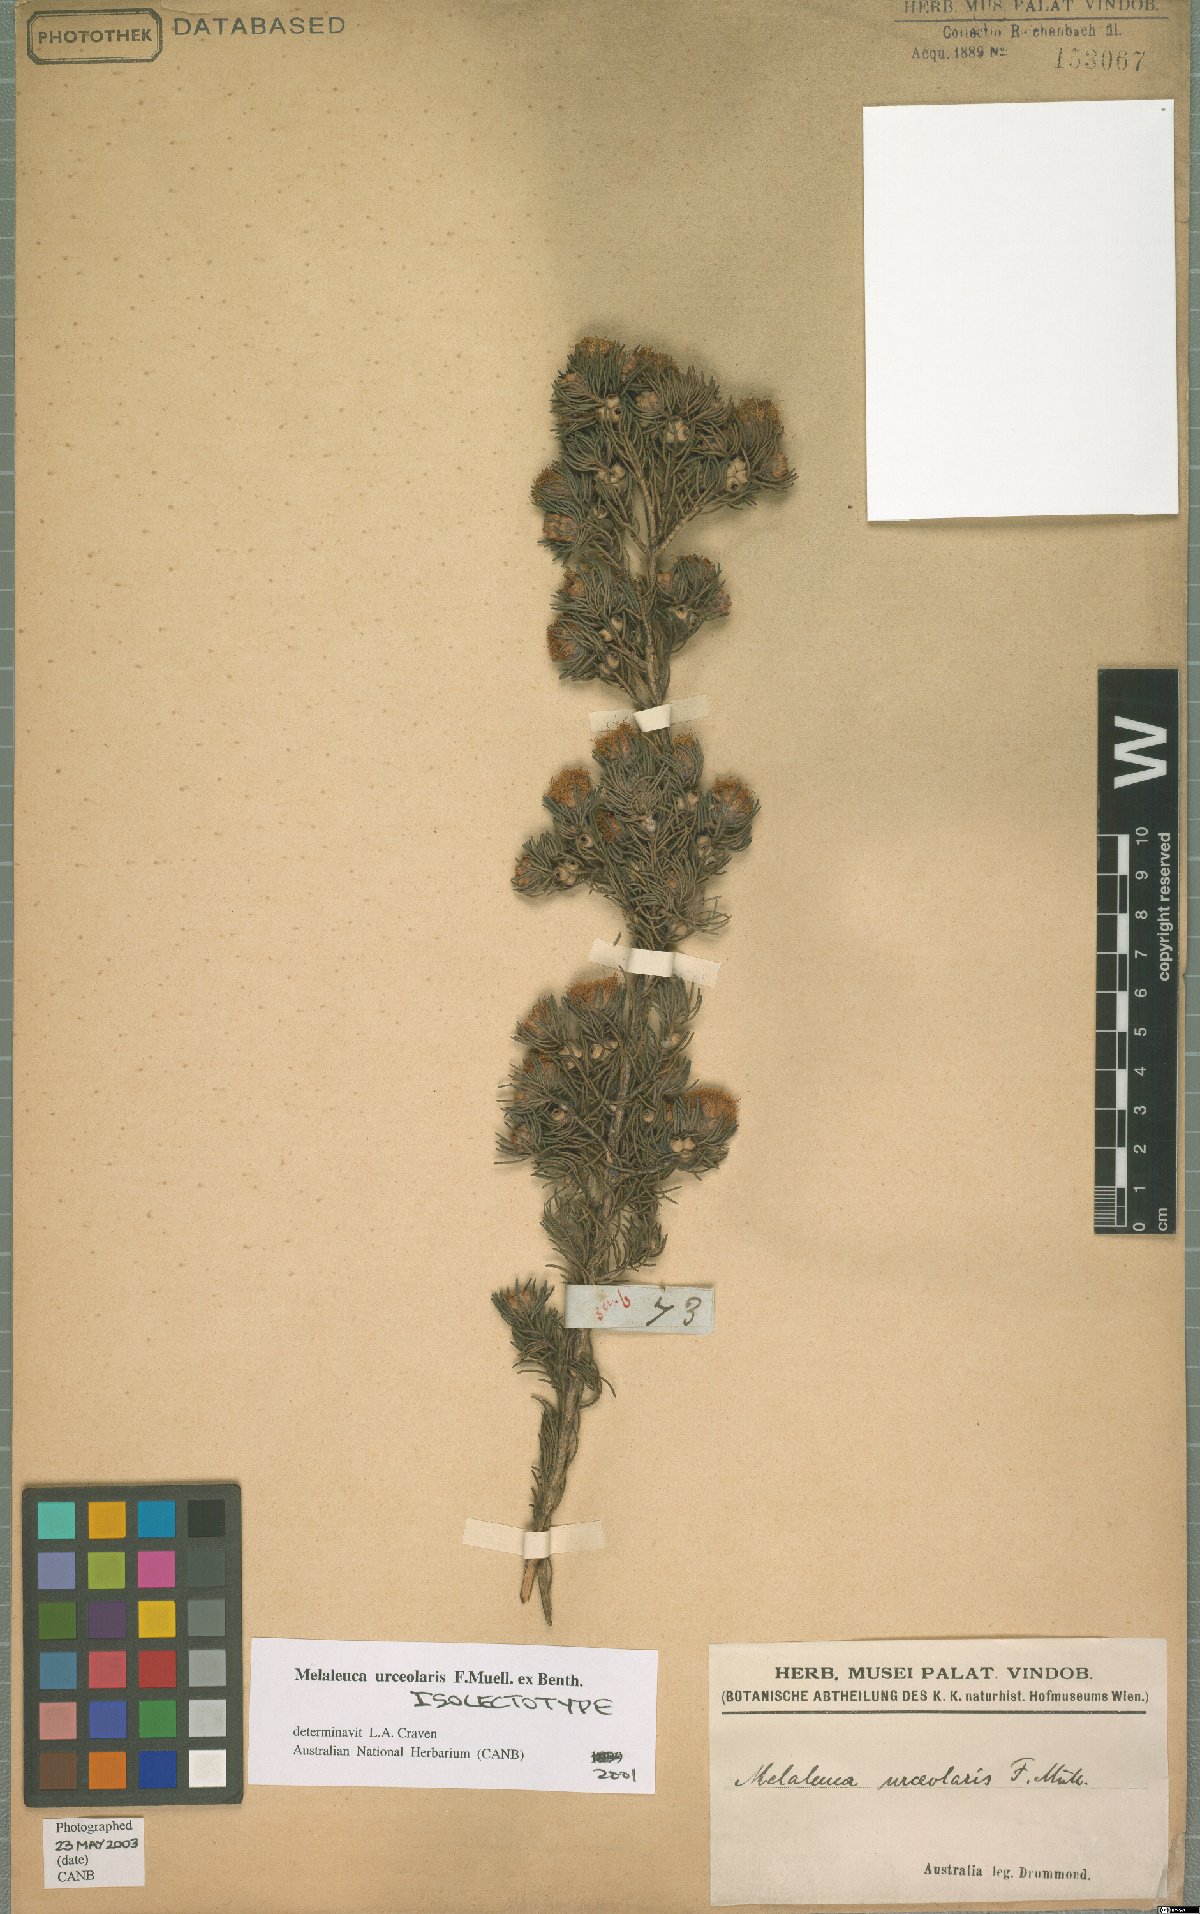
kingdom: Plantae
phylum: Tracheophyta
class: Magnoliopsida
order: Myrtales
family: Myrtaceae
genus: Melaleuca
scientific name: Melaleuca urceolaris
